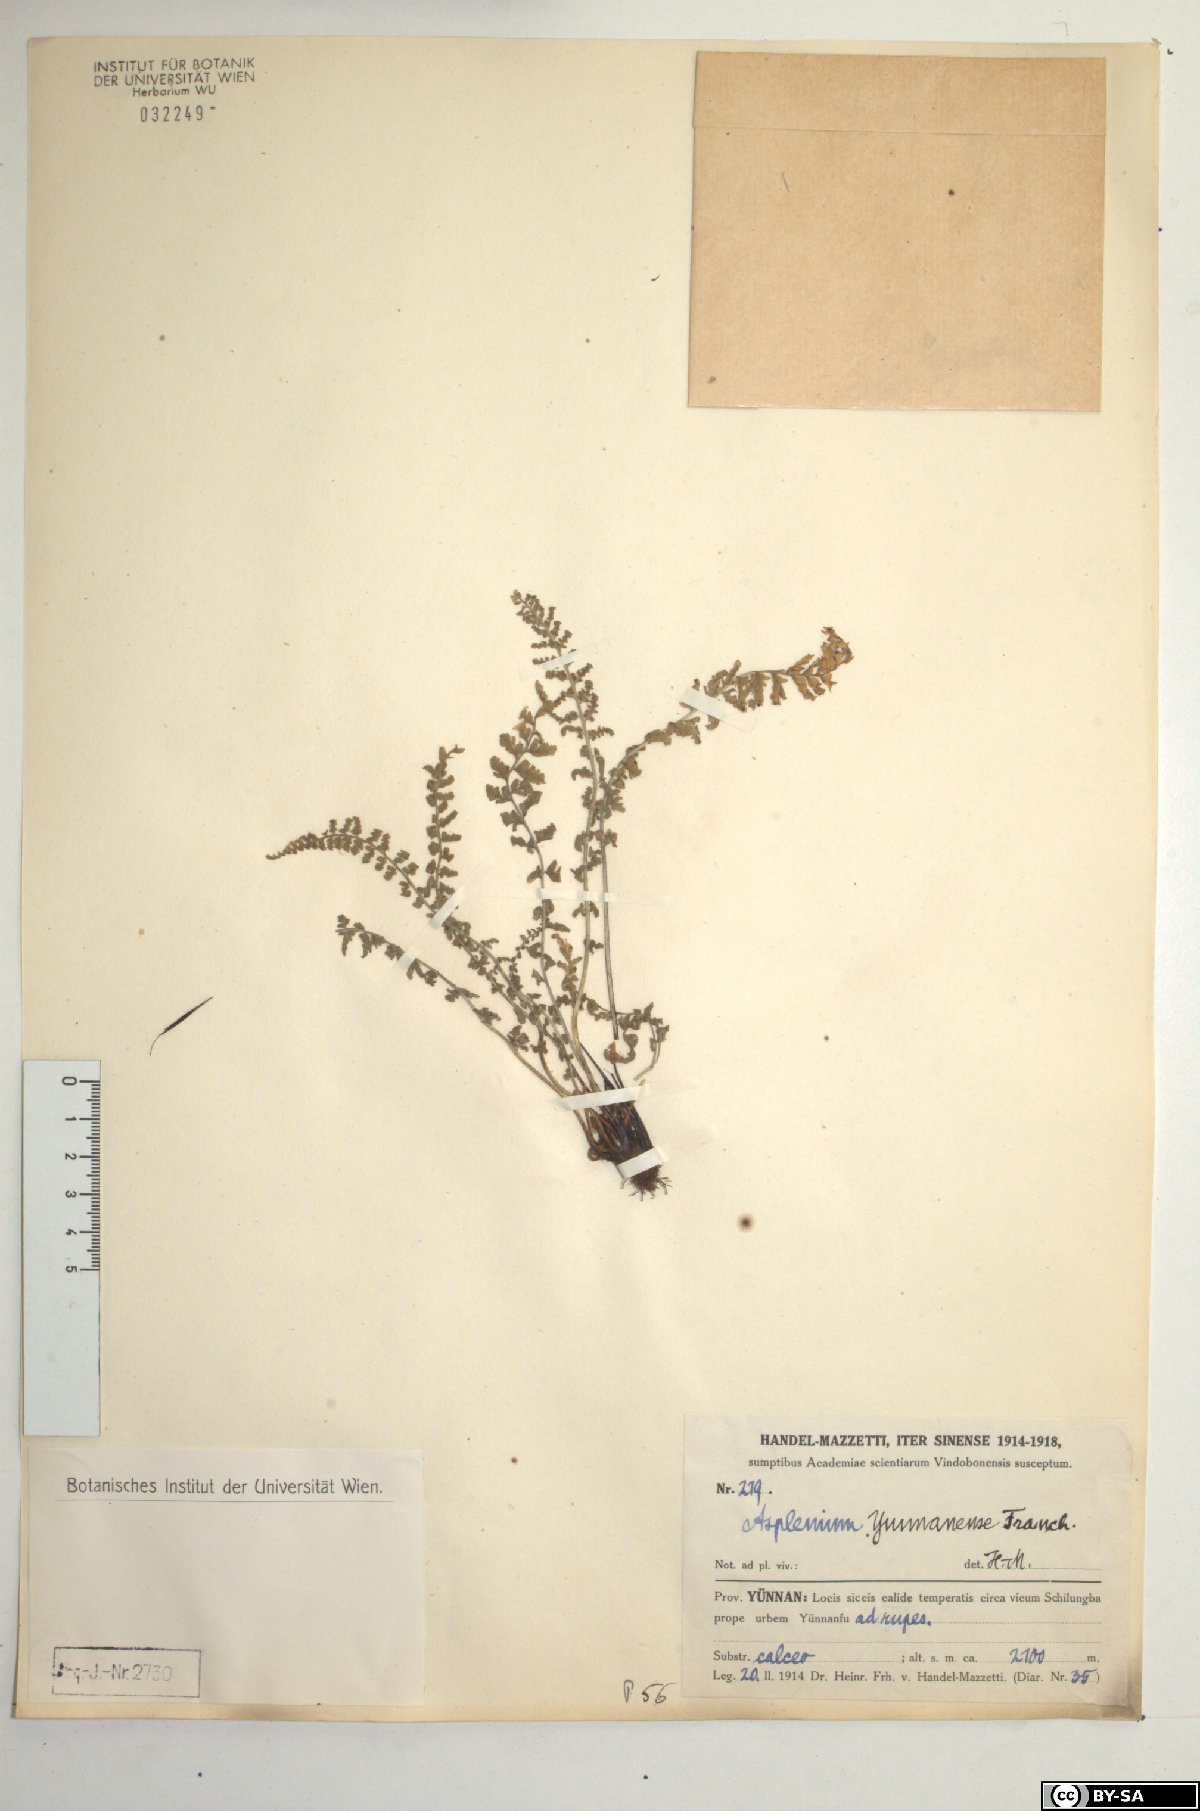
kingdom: Plantae
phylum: Tracheophyta
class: Polypodiopsida
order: Polypodiales
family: Aspleniaceae
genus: Asplenium
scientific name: Asplenium exiguum
